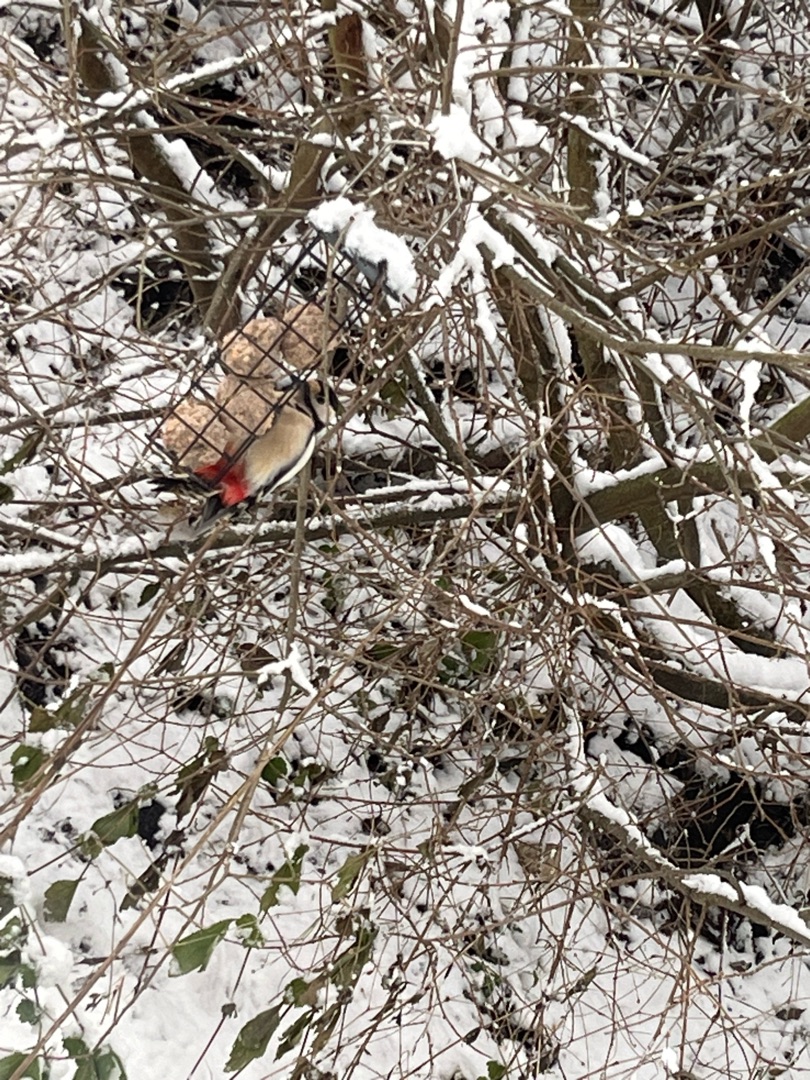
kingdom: Animalia
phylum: Chordata
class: Aves
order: Piciformes
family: Picidae
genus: Dendrocopos
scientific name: Dendrocopos major
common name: Stor flagspætte
